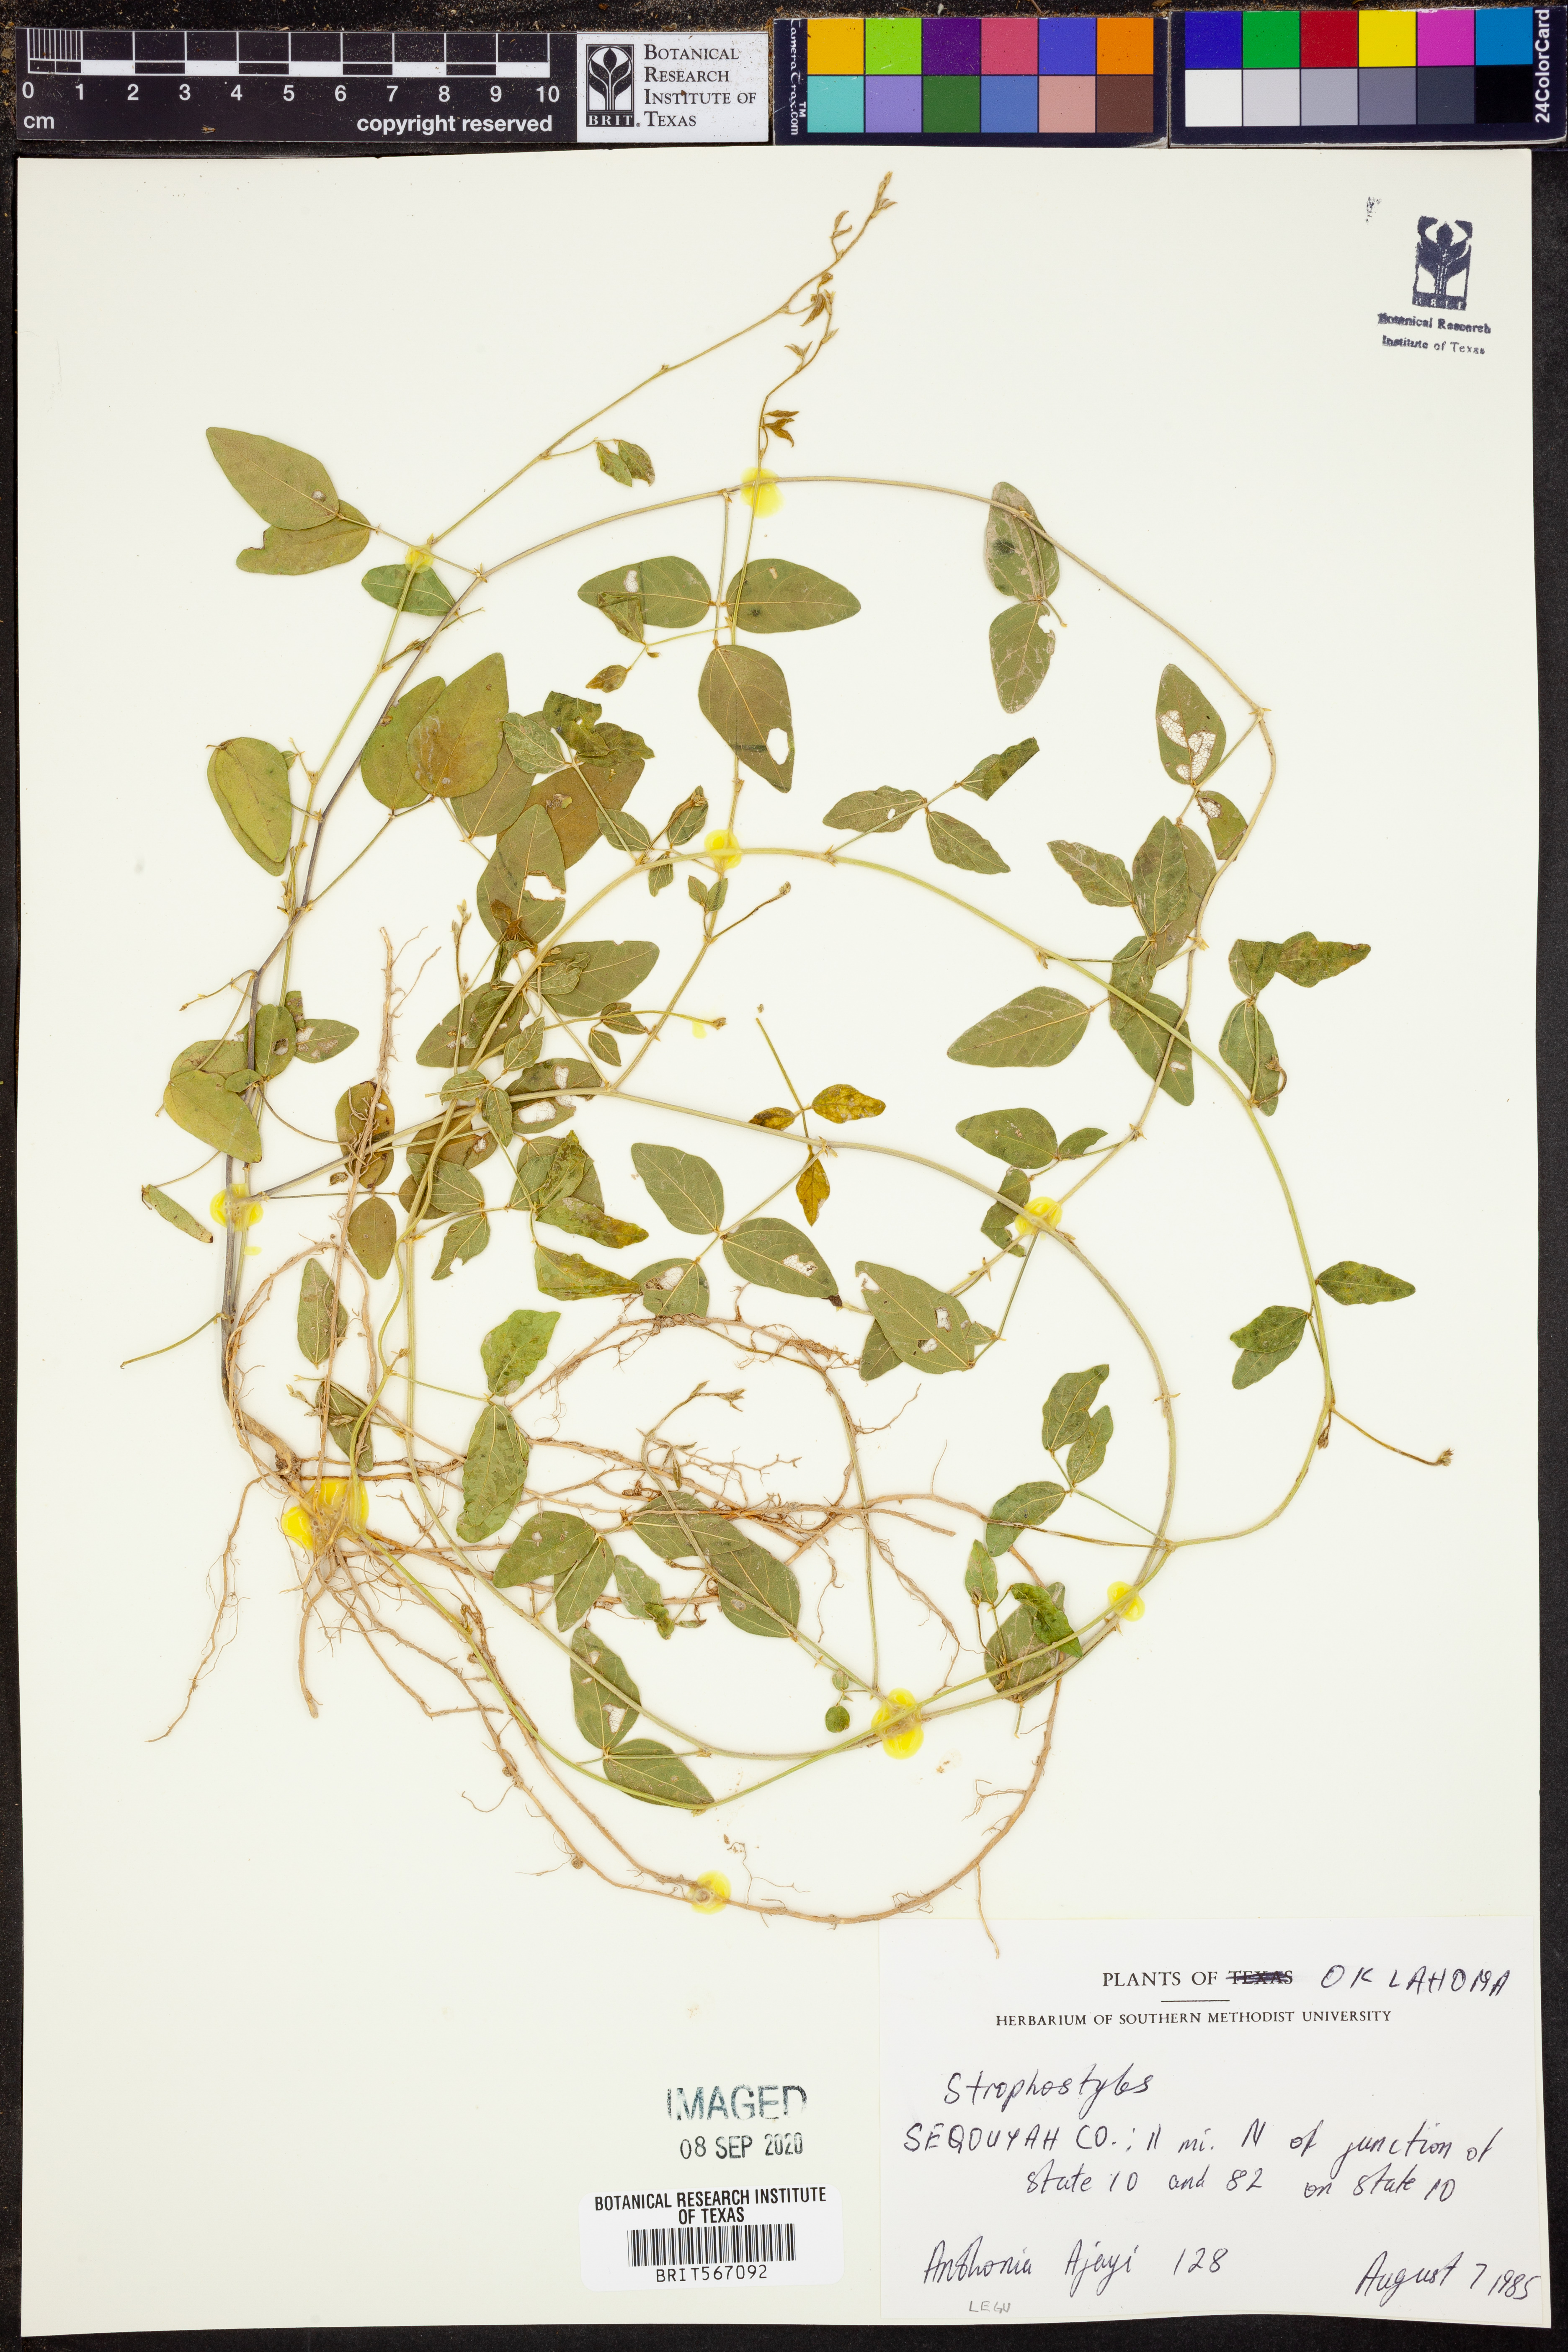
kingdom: Plantae
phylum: Tracheophyta
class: Magnoliopsida
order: Fabales
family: Fabaceae
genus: Strophostyles
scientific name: Strophostyles
